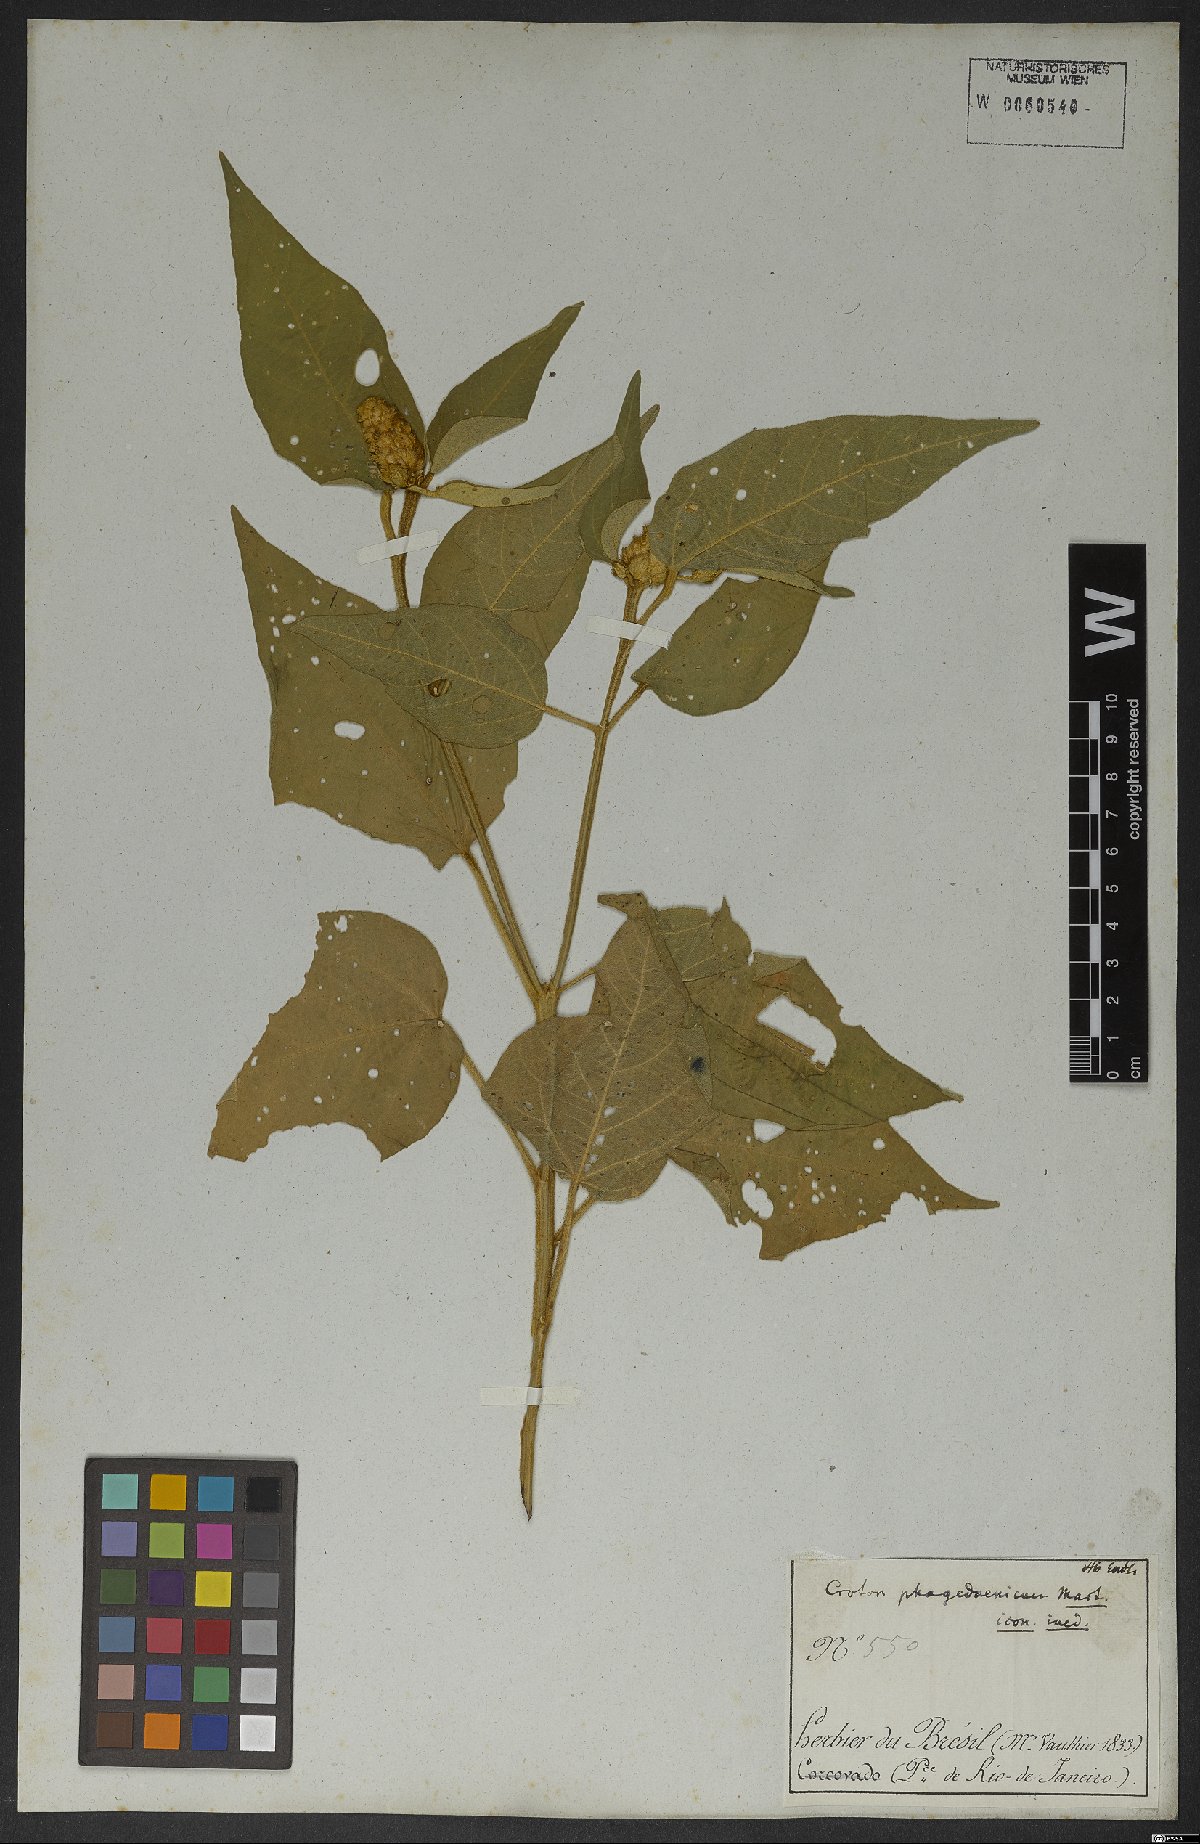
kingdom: Plantae
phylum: Tracheophyta
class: Magnoliopsida
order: Malpighiales
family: Euphorbiaceae
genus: Croton
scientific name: Croton triqueter
